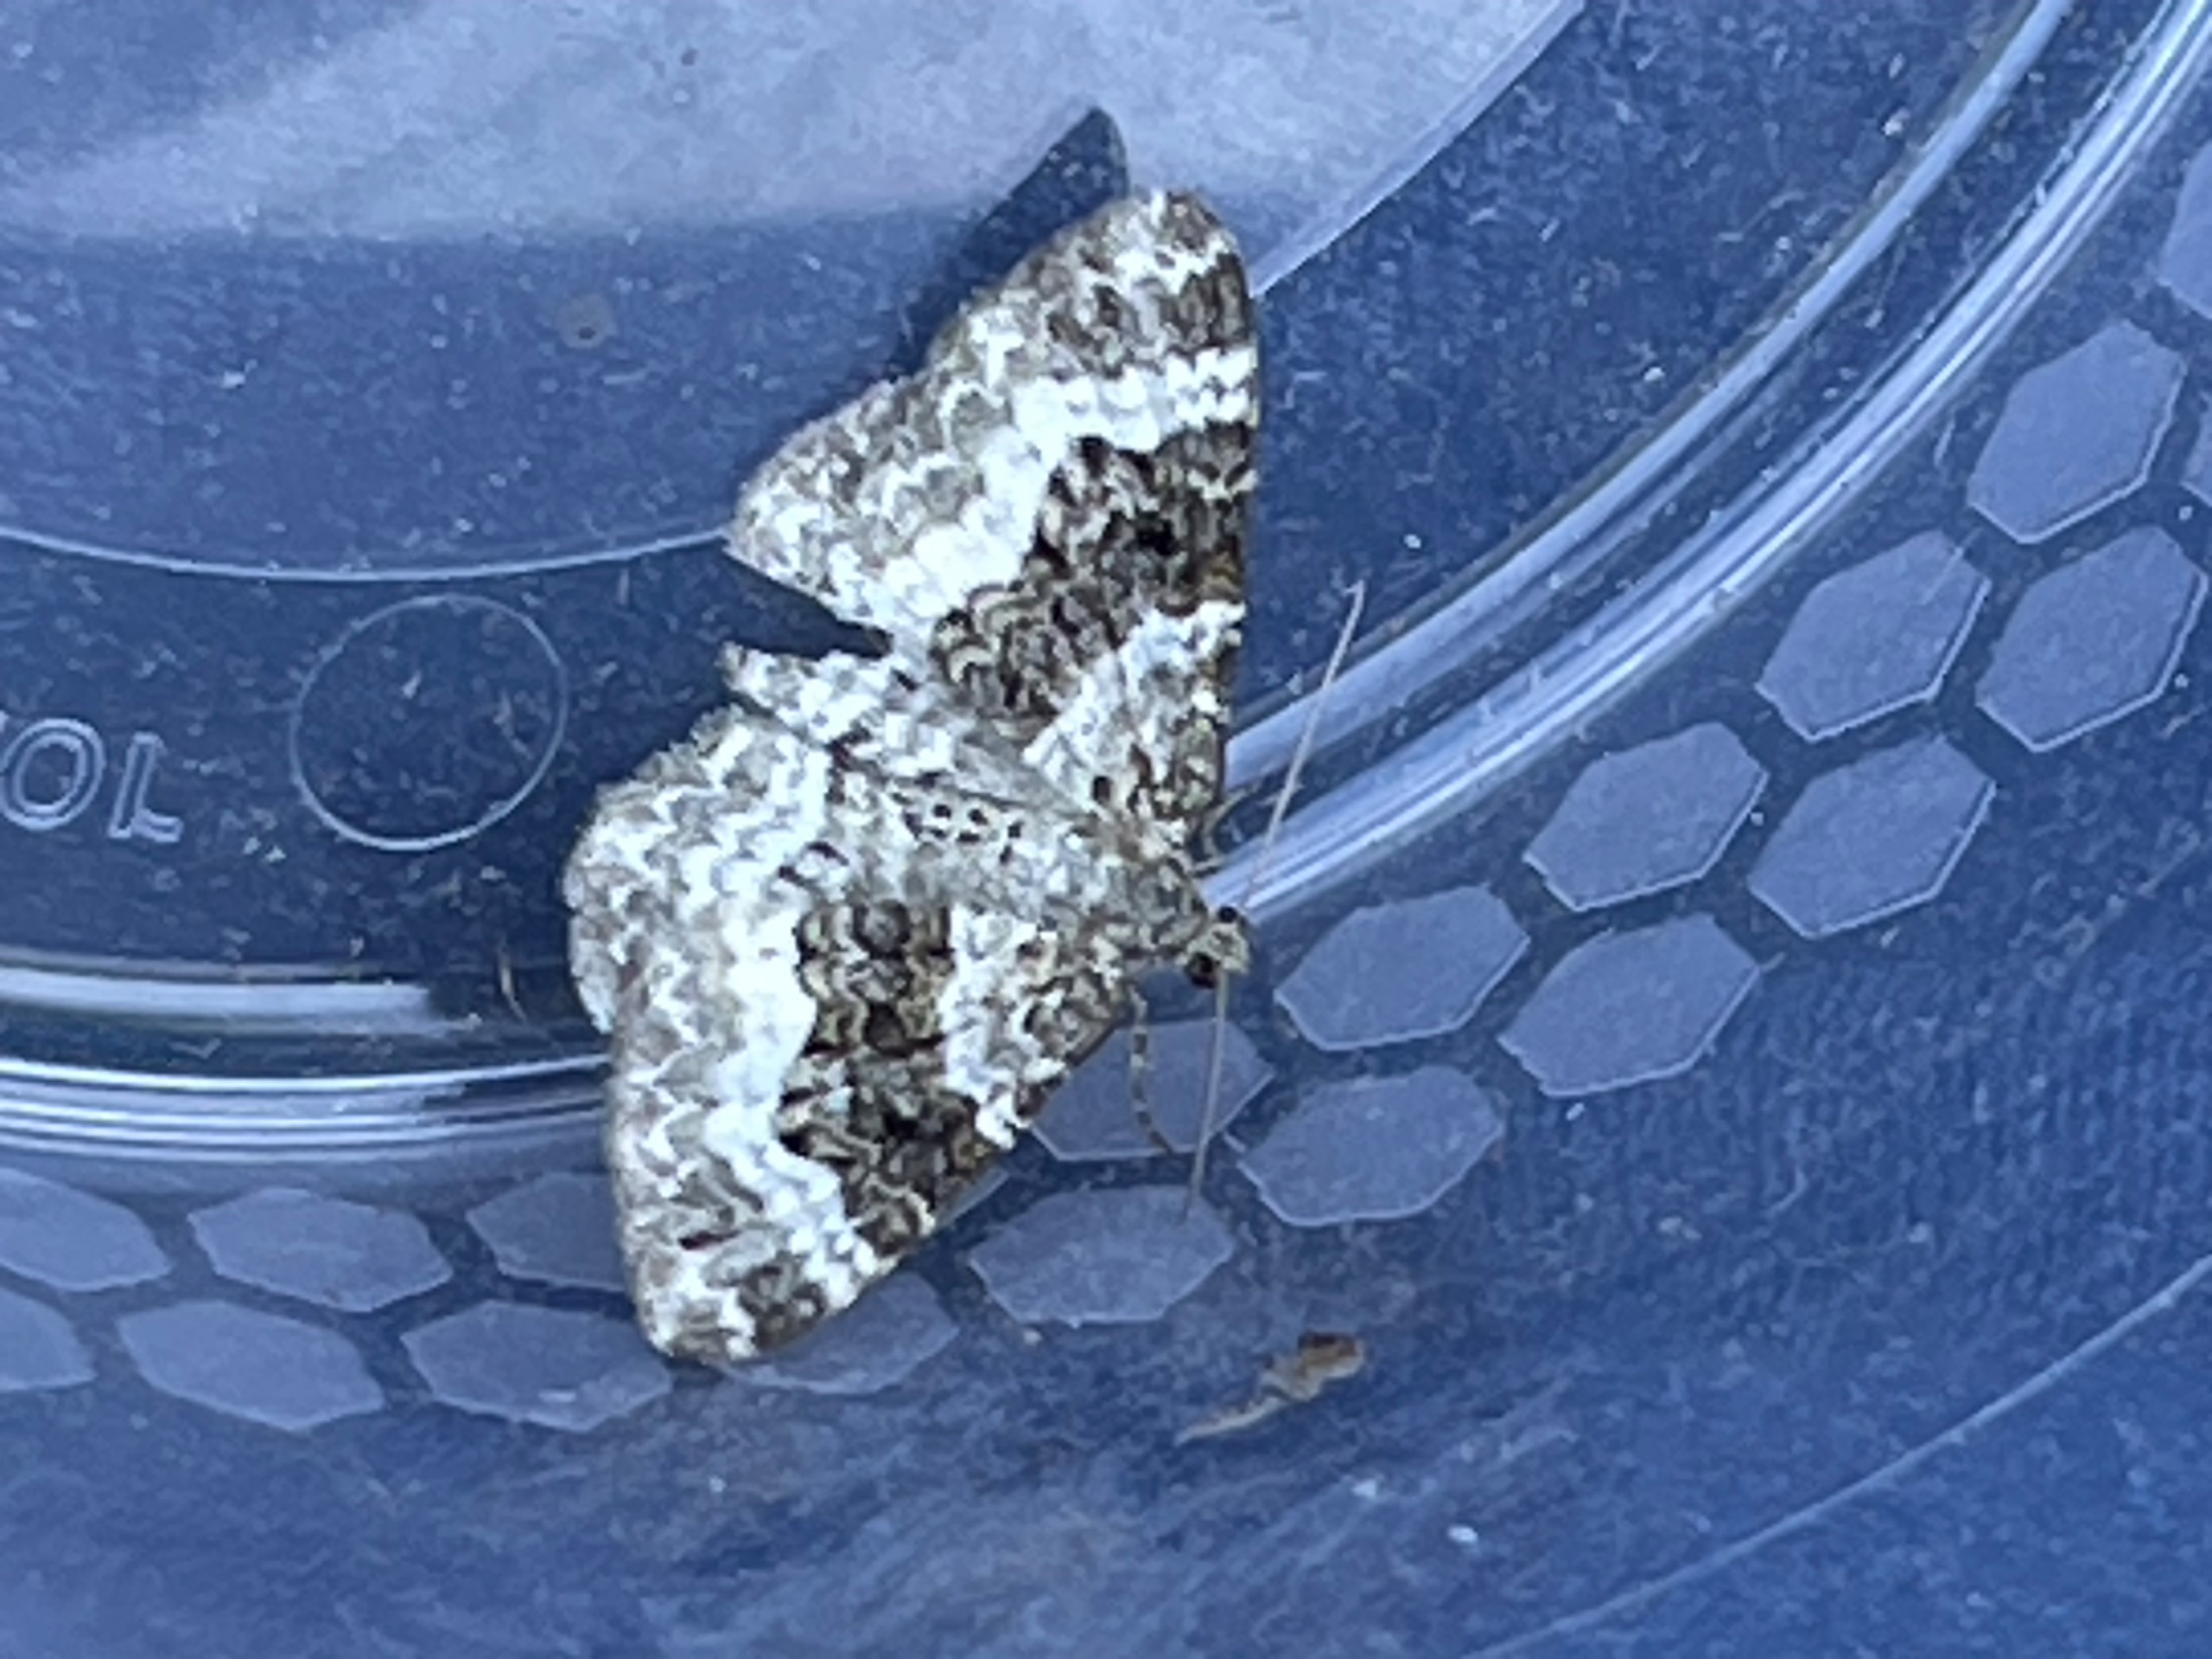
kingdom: Animalia
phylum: Arthropoda
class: Insecta
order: Lepidoptera
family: Geometridae
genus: Epirrhoe
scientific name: Epirrhoe alternata
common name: Almindelig bladmåler
